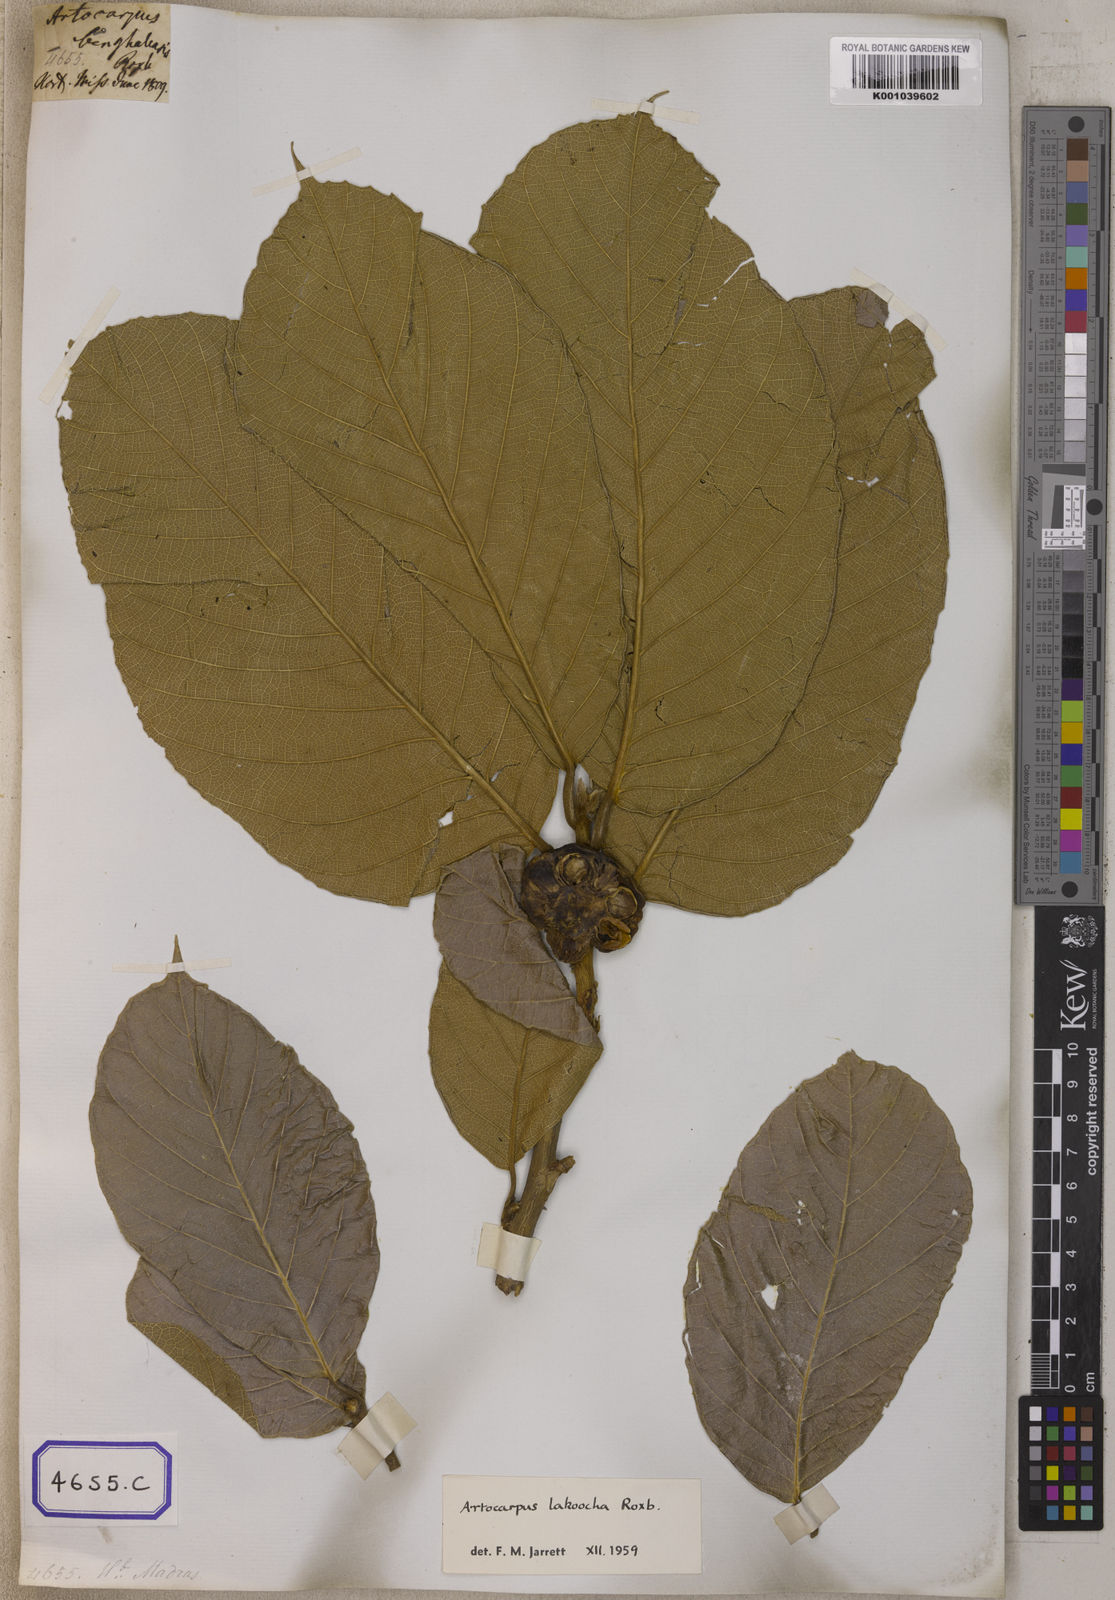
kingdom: Plantae
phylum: Tracheophyta
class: Magnoliopsida
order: Rosales
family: Moraceae
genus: Artocarpus
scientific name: Artocarpus lacucha
